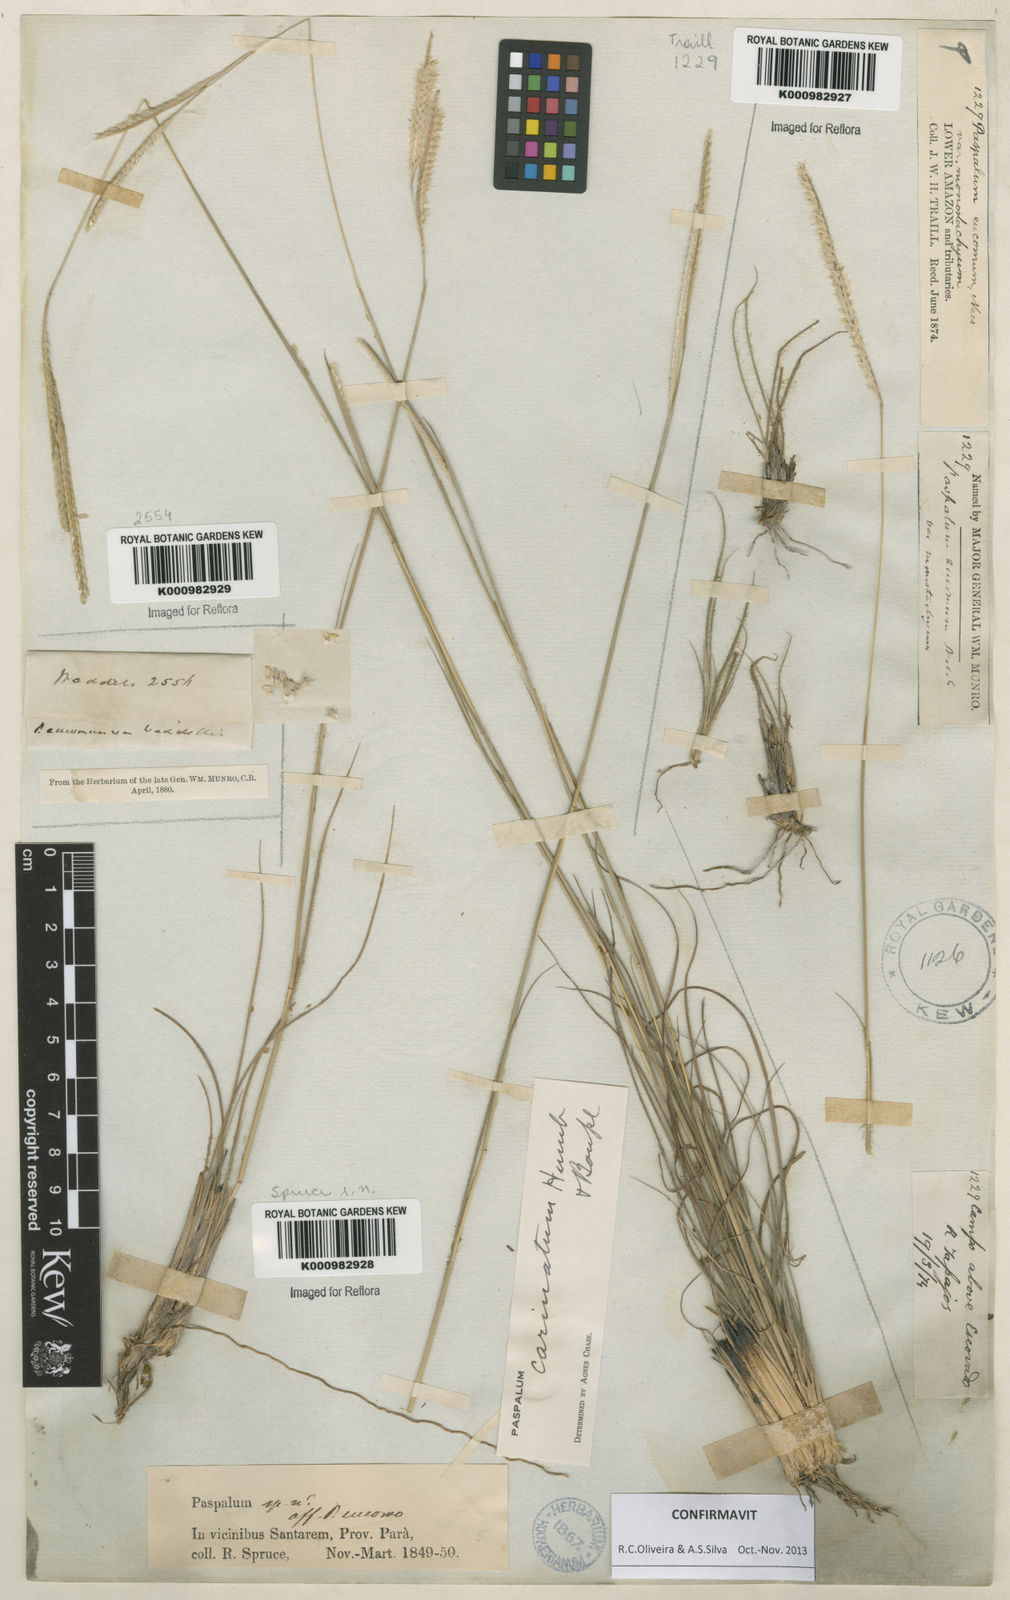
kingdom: Plantae
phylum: Tracheophyta
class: Liliopsida
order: Poales
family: Poaceae
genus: Paspalum
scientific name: Paspalum
